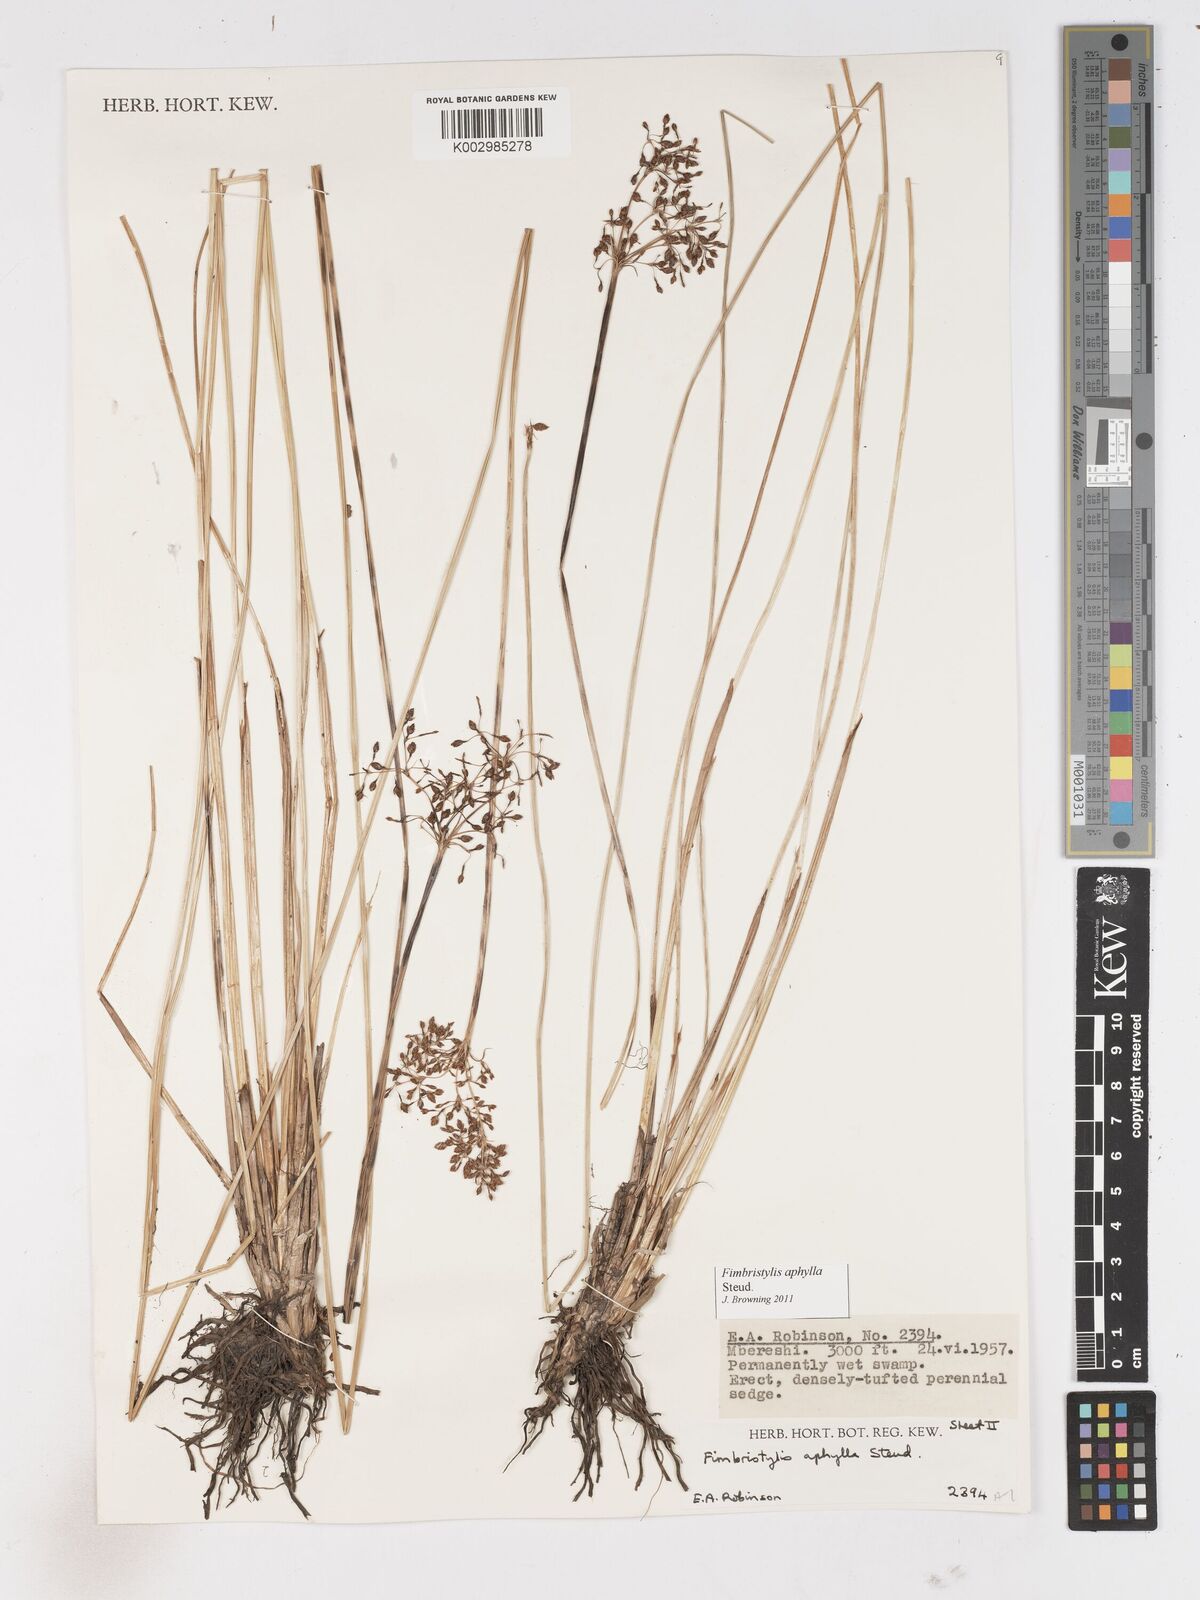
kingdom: Plantae
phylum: Tracheophyta
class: Liliopsida
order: Poales
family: Cyperaceae
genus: Fimbristylis
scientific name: Fimbristylis aphylla
